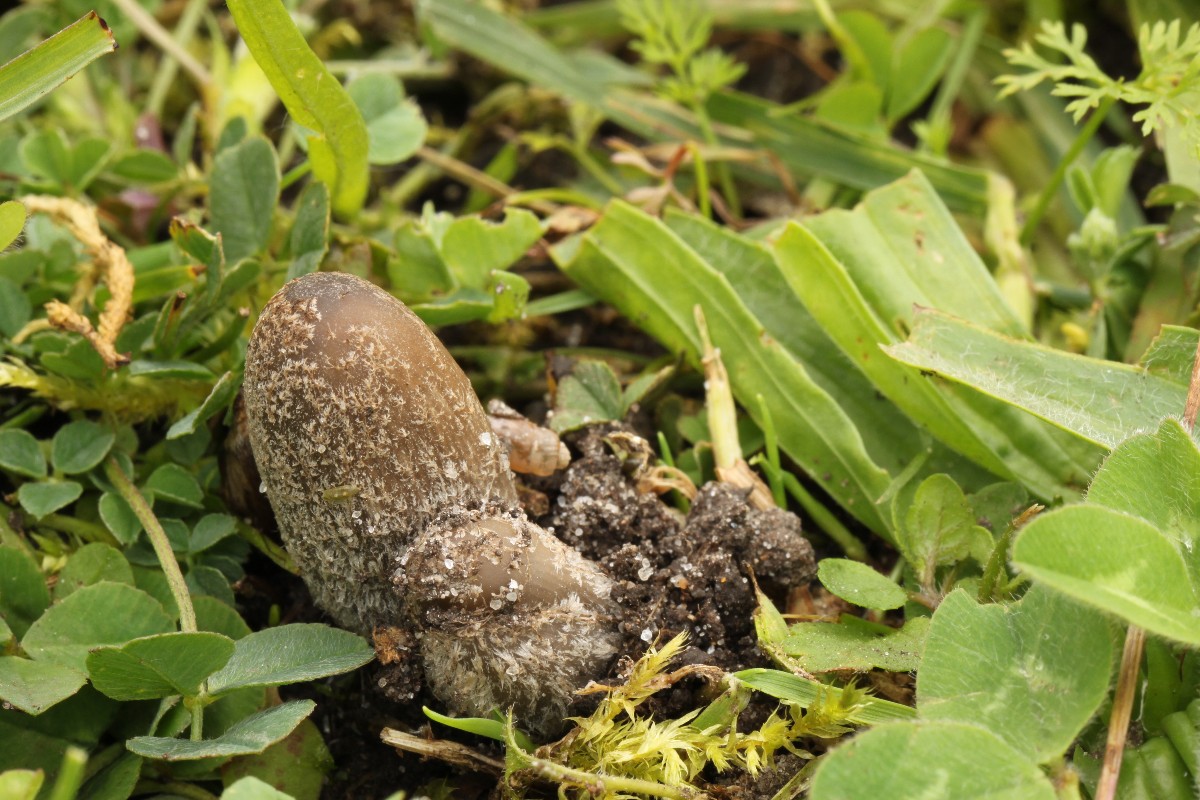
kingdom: Fungi
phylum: Basidiomycota
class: Agaricomycetes
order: Agaricales
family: Psathyrellaceae
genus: Coprinopsis
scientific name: Coprinopsis
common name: blækhat
